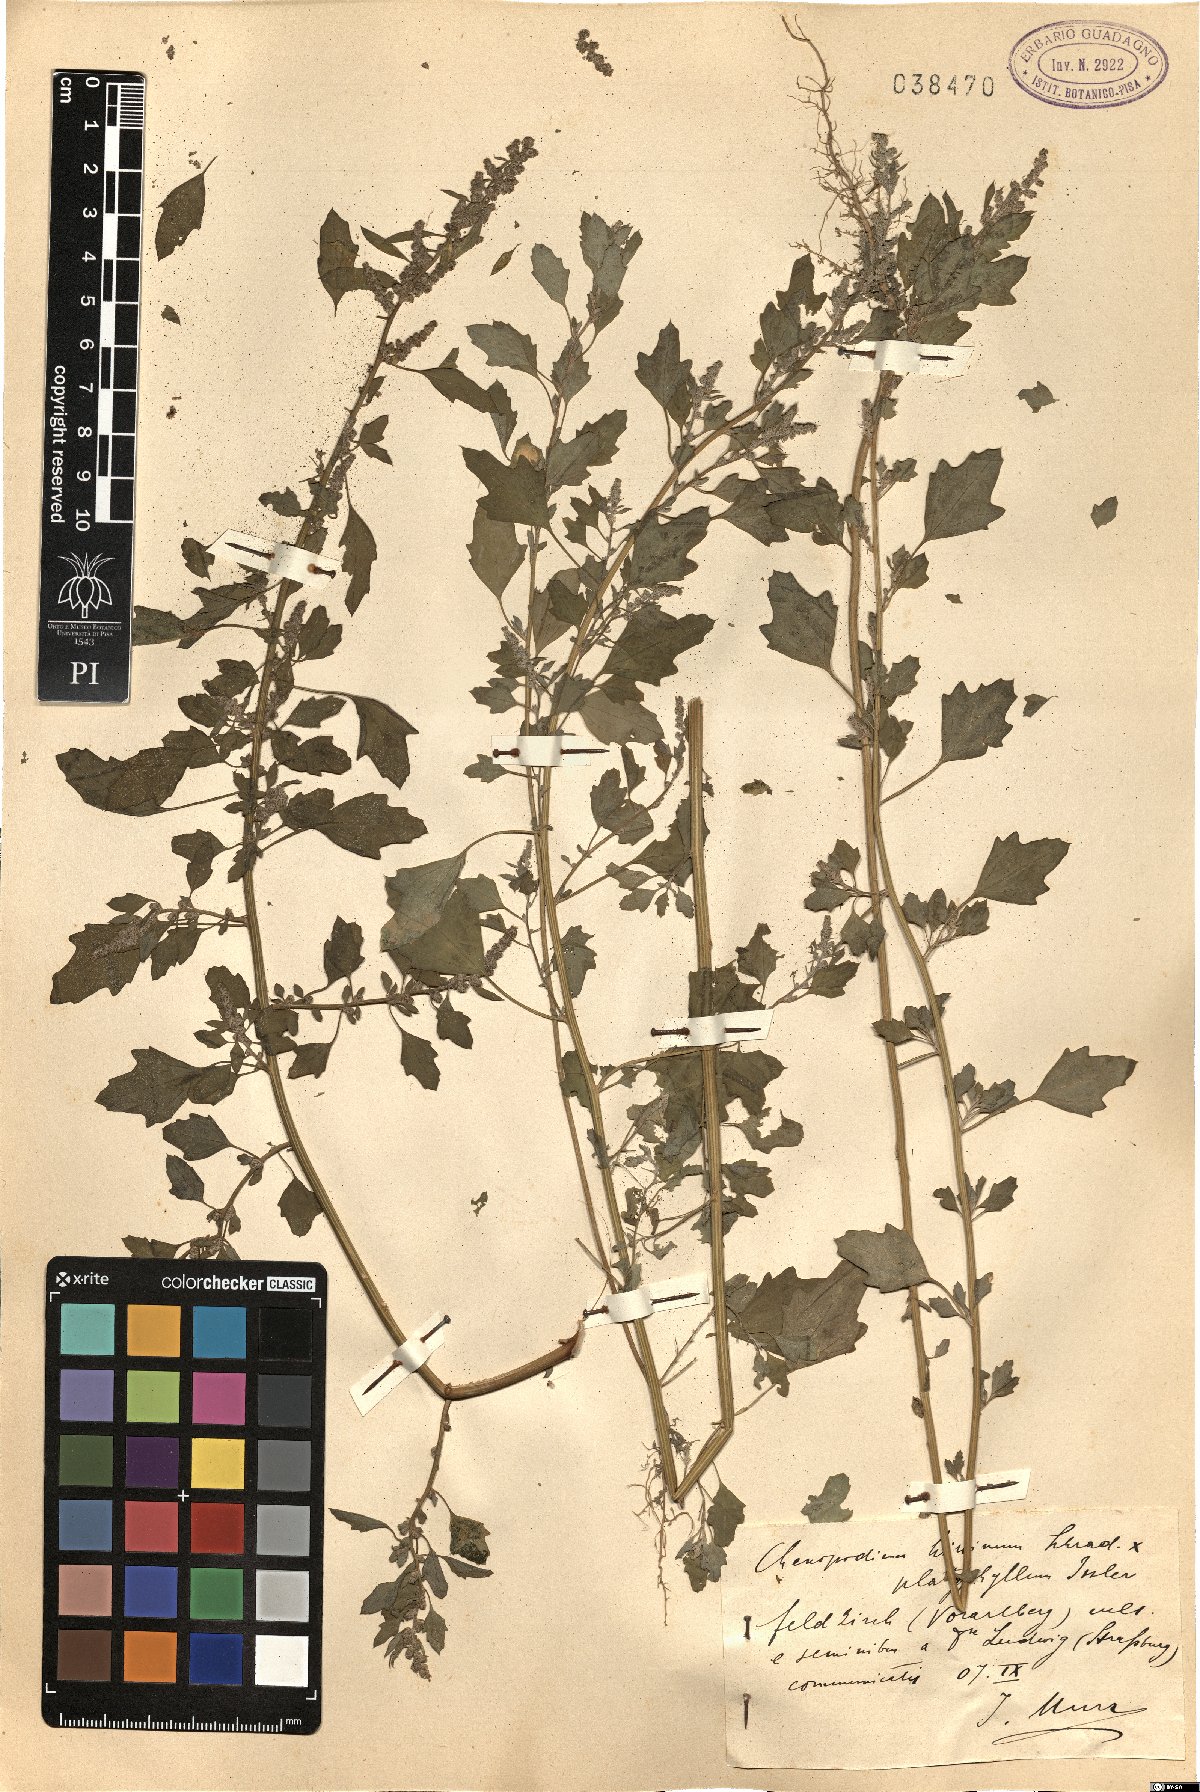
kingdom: Plantae
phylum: Tracheophyta
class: Magnoliopsida
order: Caryophyllales
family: Amaranthaceae
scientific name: Amaranthaceae
